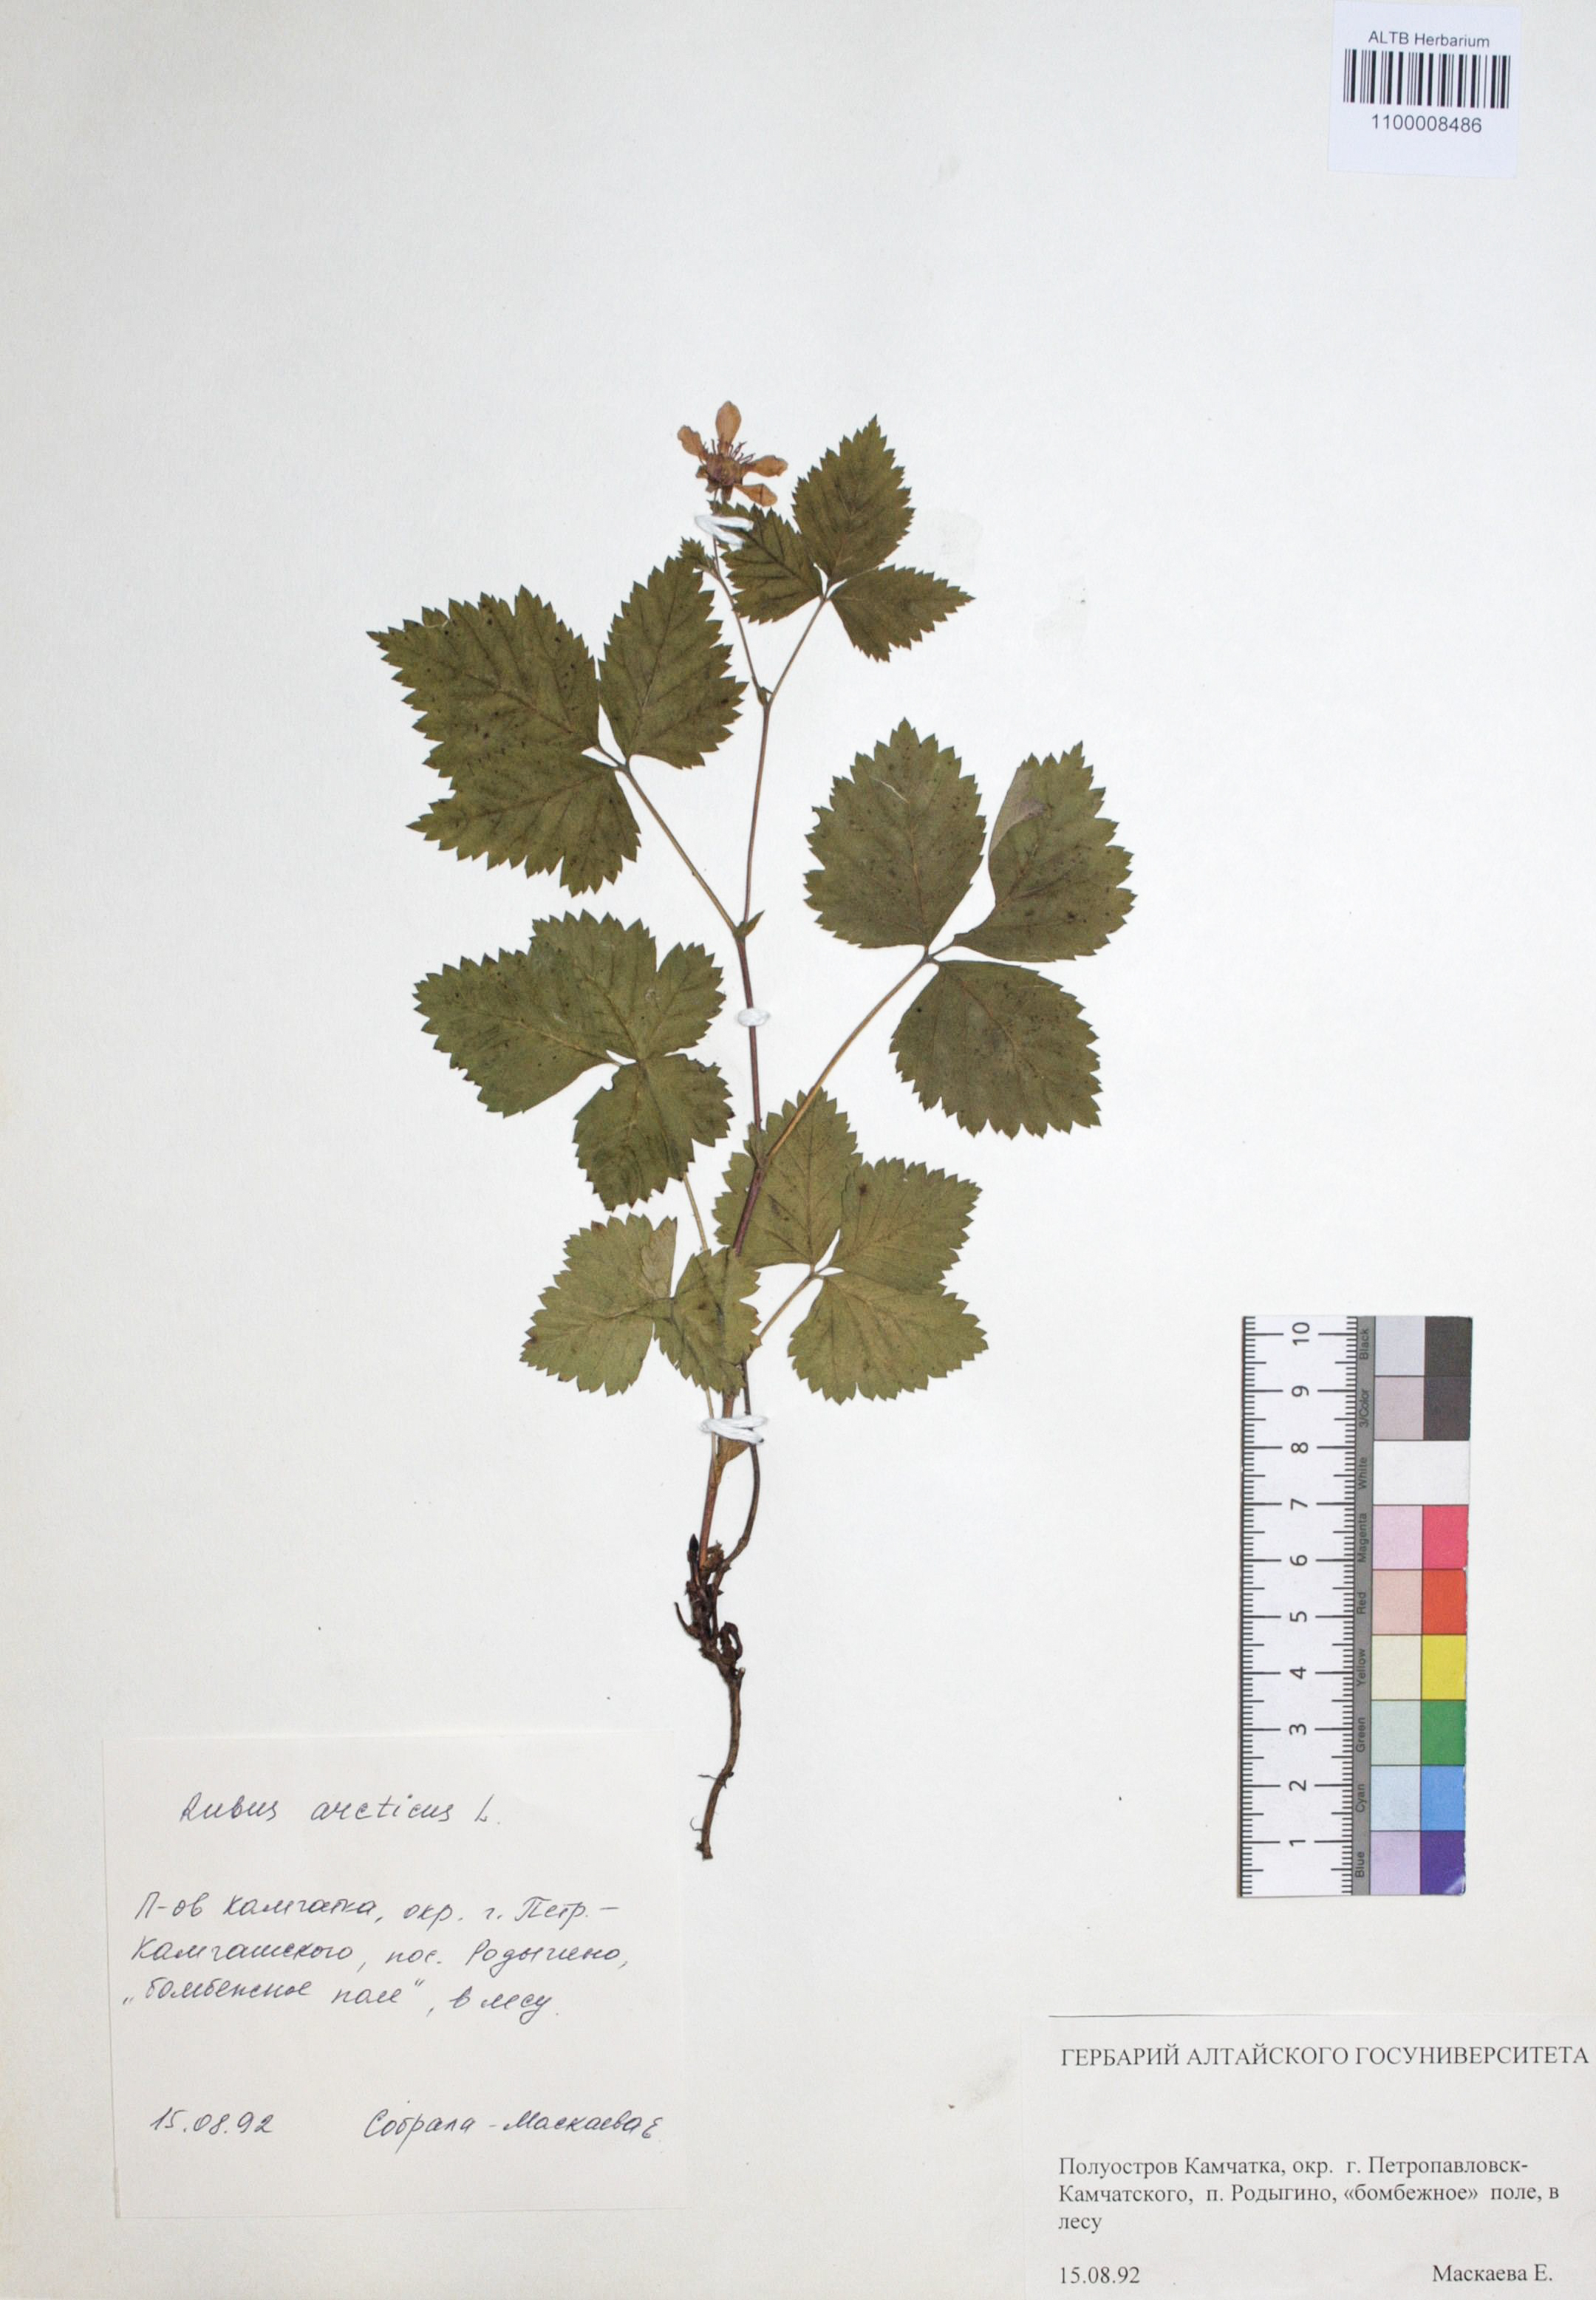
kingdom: Plantae
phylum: Tracheophyta
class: Magnoliopsida
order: Rosales
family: Rosaceae
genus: Rubus
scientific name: Rubus arcticus
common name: Arctic bramble
